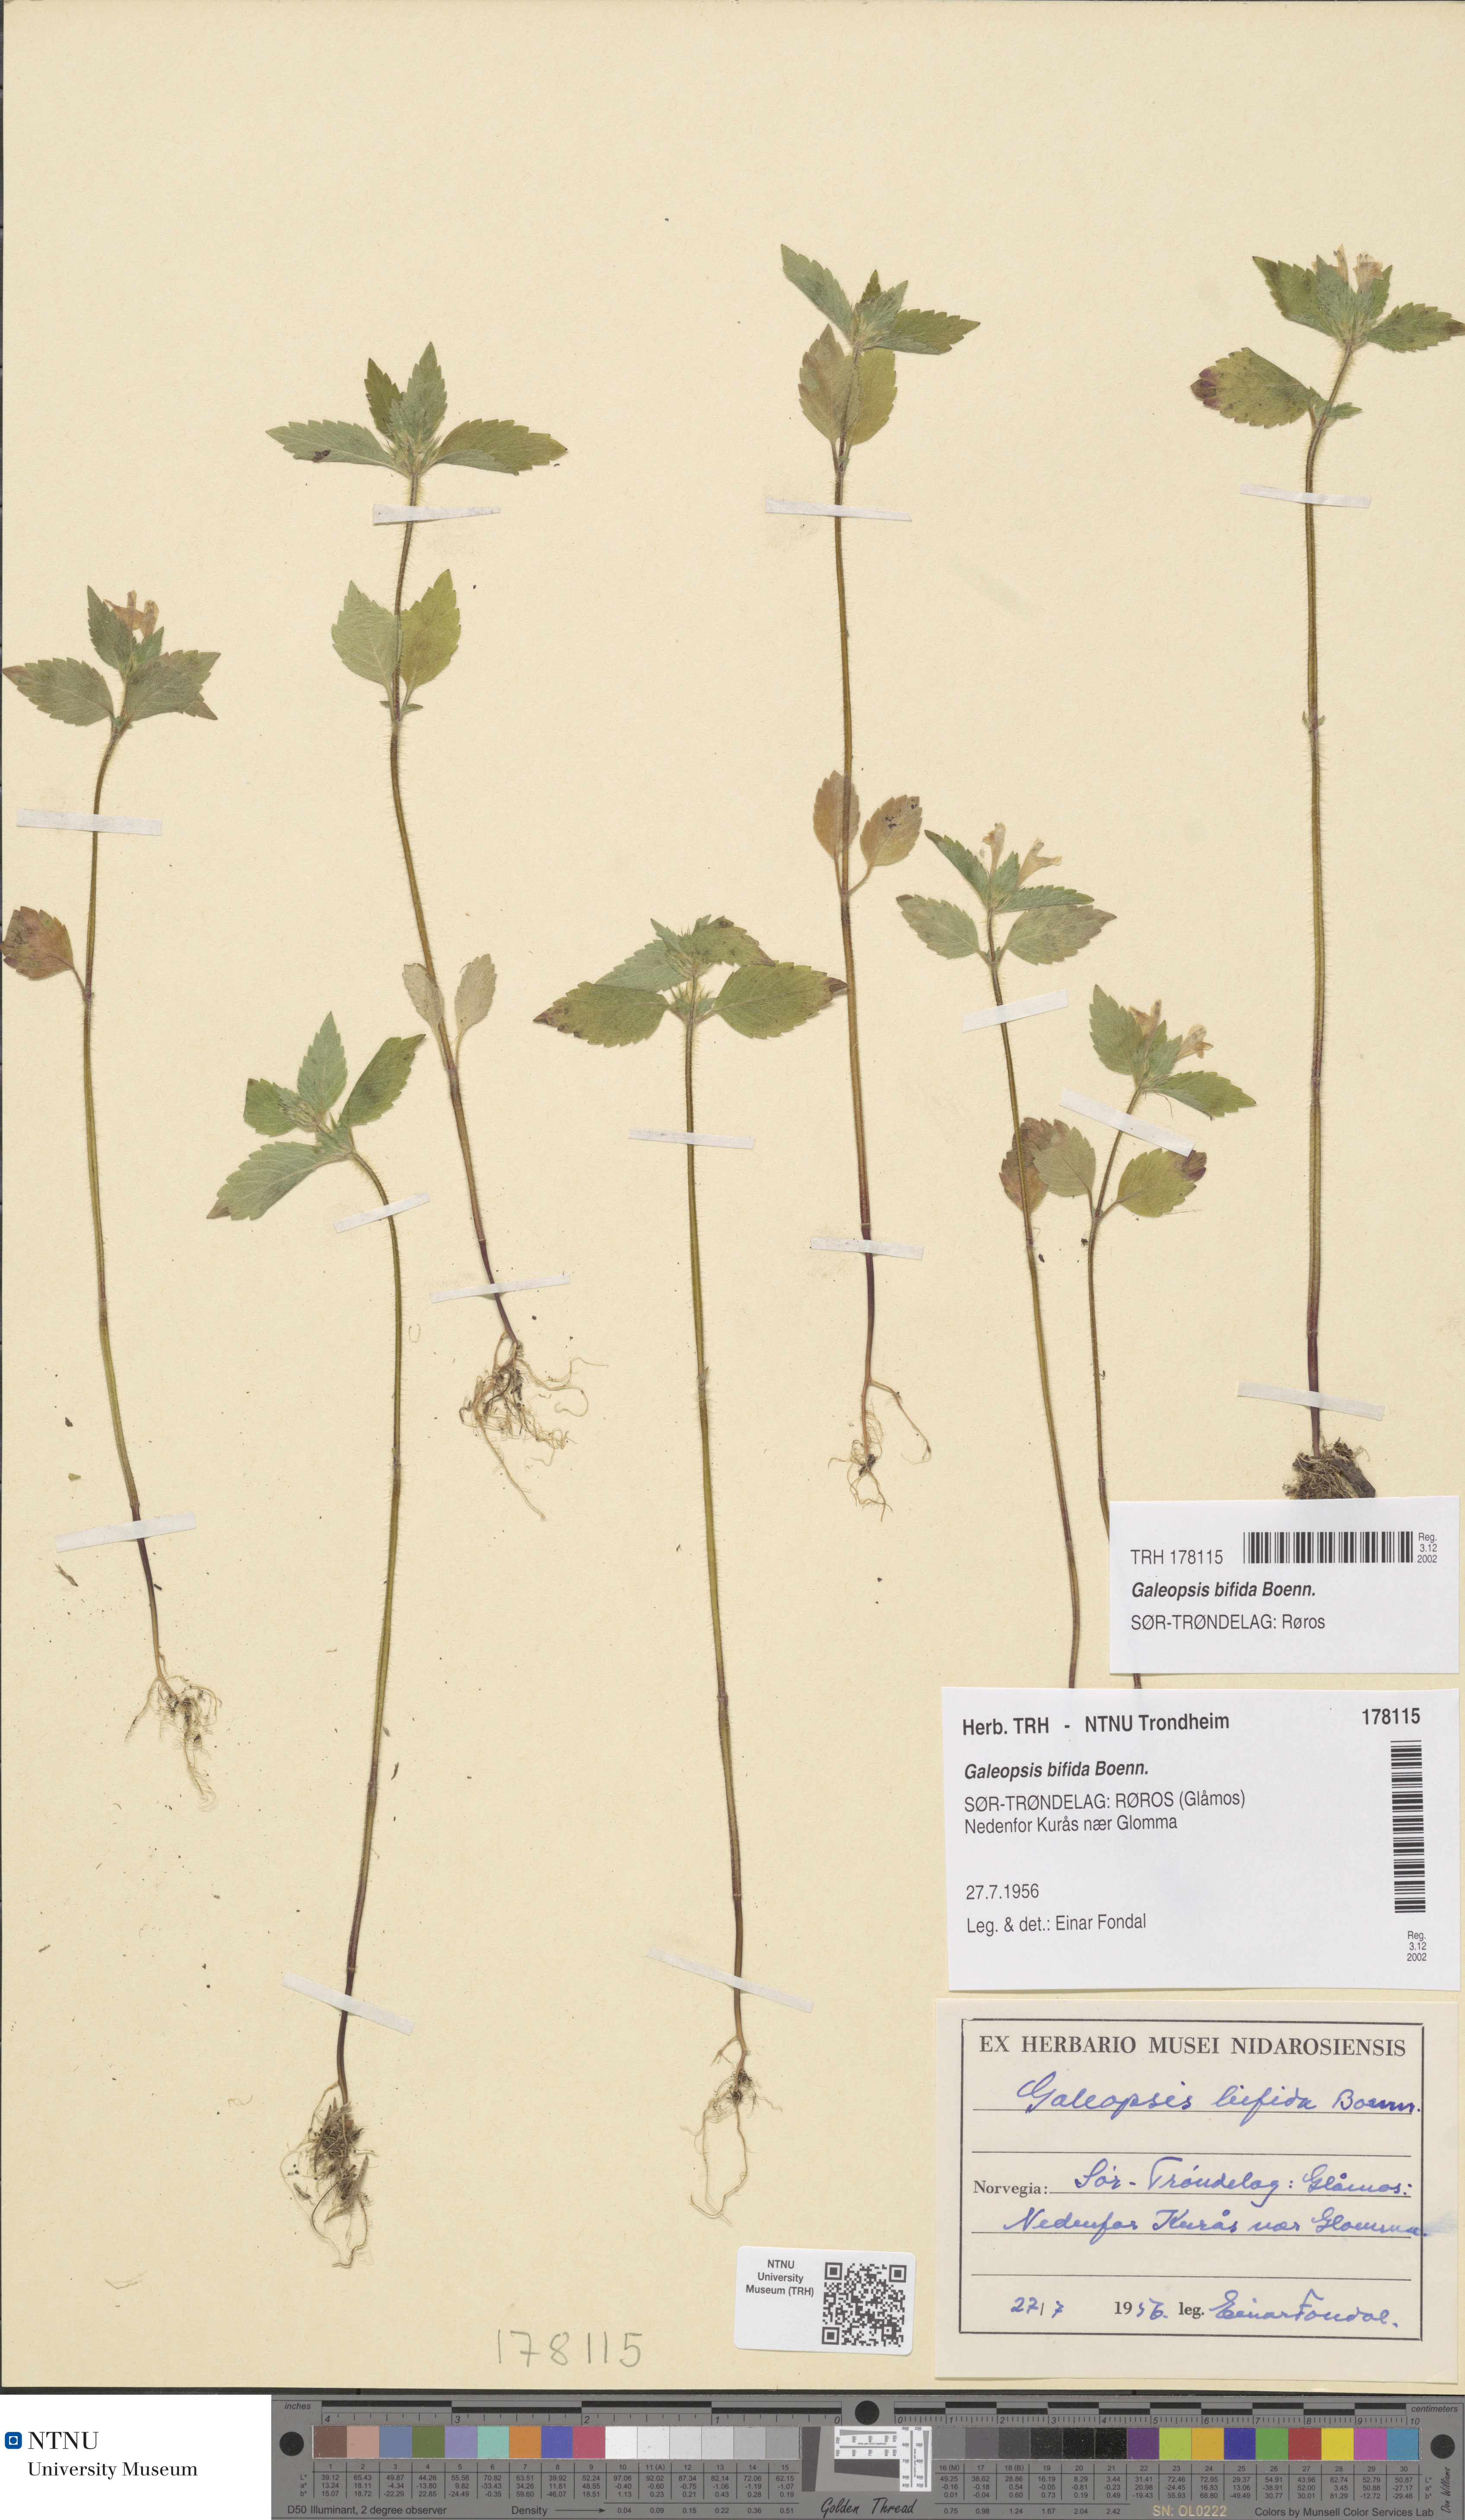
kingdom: Plantae
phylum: Tracheophyta
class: Magnoliopsida
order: Lamiales
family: Lamiaceae
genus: Galeopsis
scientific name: Galeopsis bifida
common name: Bifid hemp-nettle
